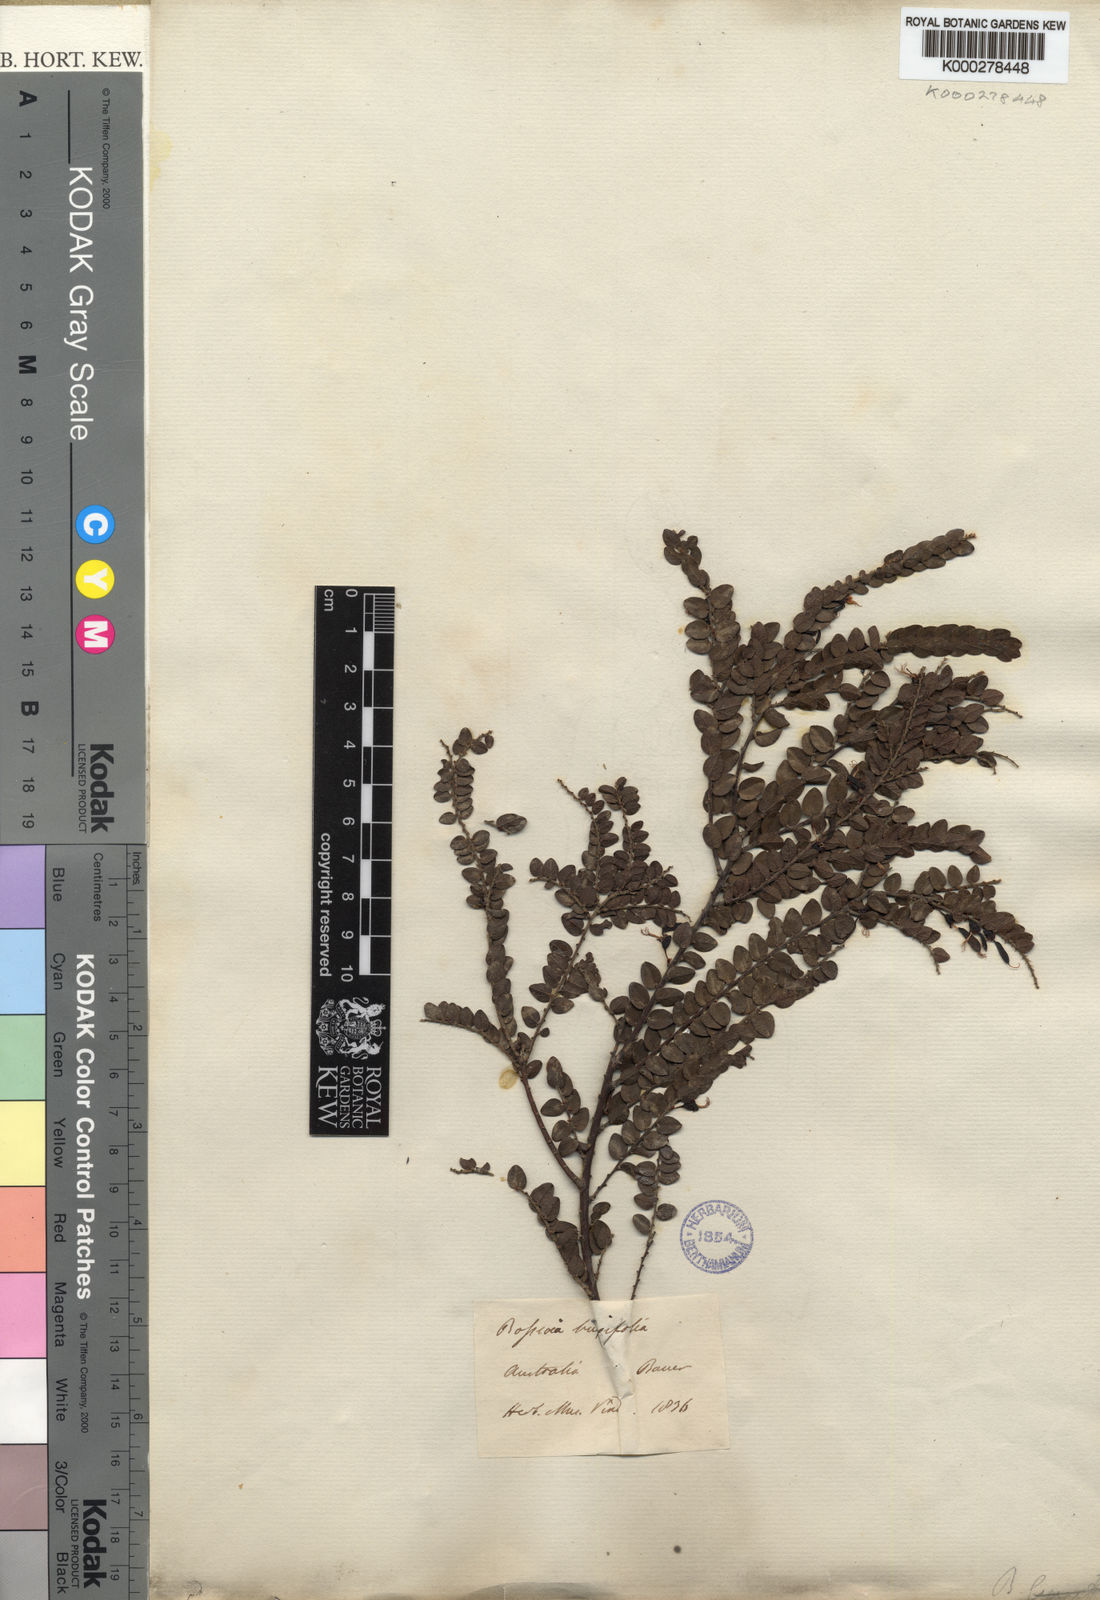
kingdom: Plantae
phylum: Tracheophyta
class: Magnoliopsida
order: Fabales
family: Fabaceae
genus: Bossiaea
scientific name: Bossiaea buxifolia
